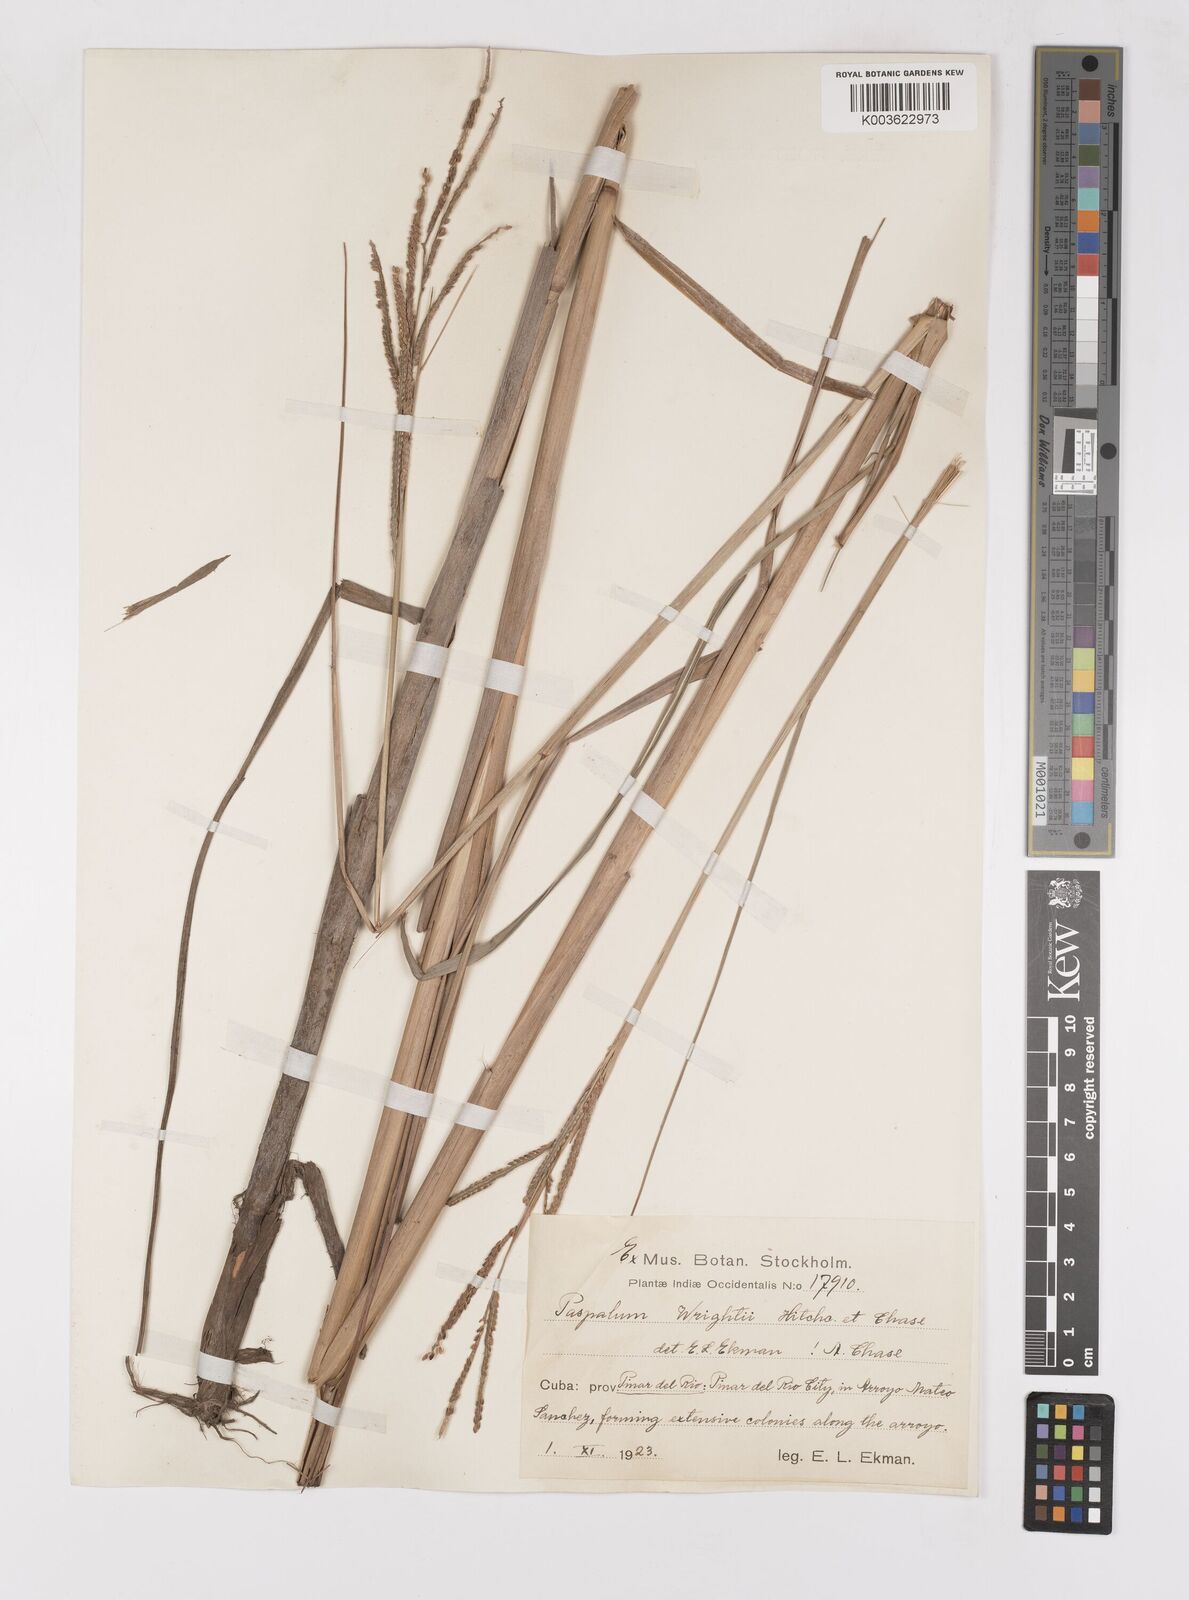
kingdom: Plantae
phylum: Tracheophyta
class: Liliopsida
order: Poales
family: Poaceae
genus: Paspalum
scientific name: Paspalum wrightii
